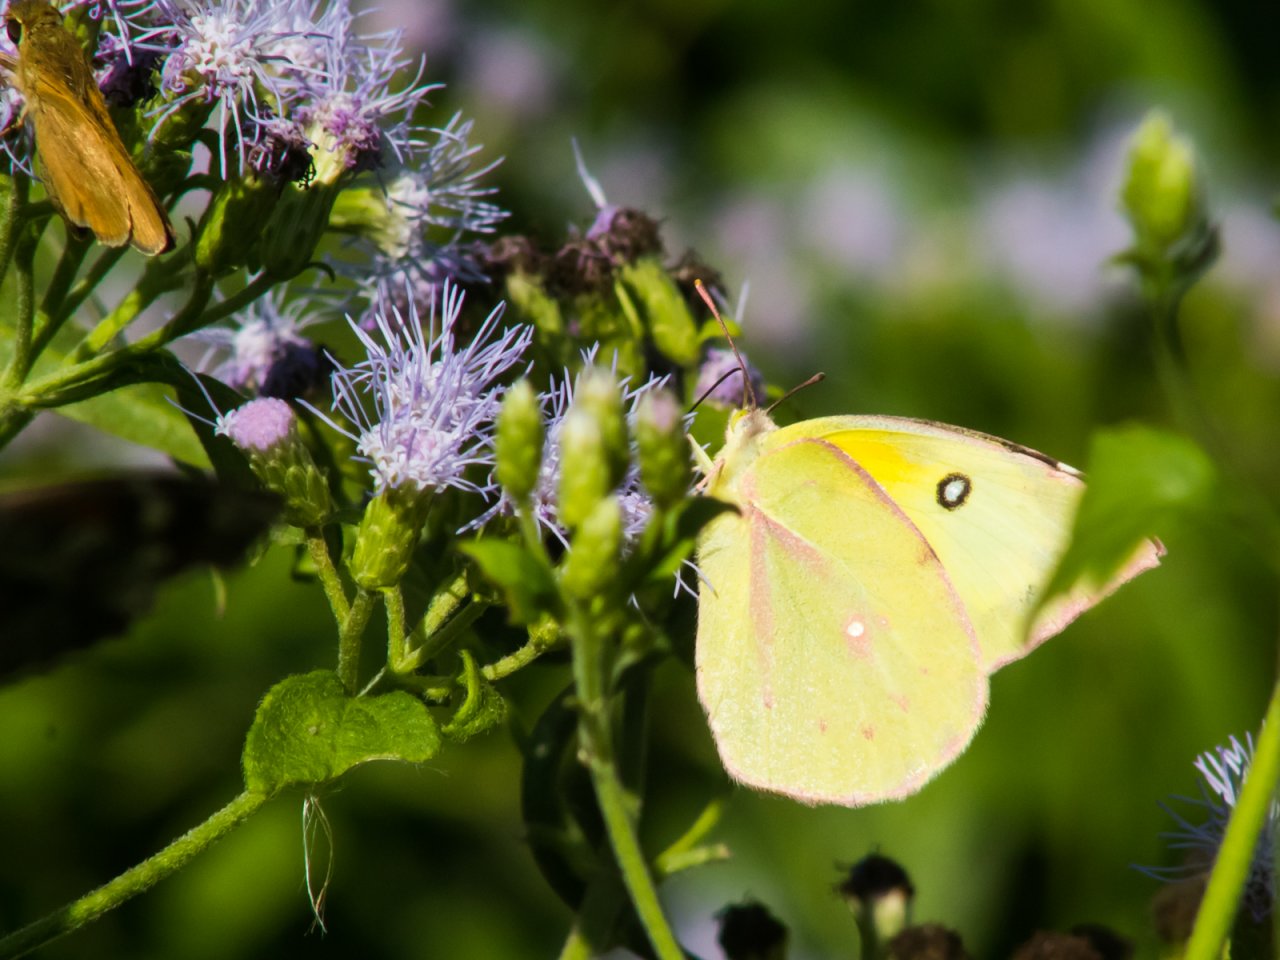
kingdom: Animalia
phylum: Arthropoda
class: Insecta
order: Lepidoptera
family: Pieridae
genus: Zerene
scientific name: Zerene cesonia
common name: Southern Dogface
